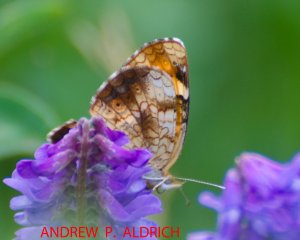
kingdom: Animalia
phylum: Arthropoda
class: Insecta
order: Lepidoptera
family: Nymphalidae
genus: Phyciodes
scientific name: Phyciodes tharos
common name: Northern Crescent
